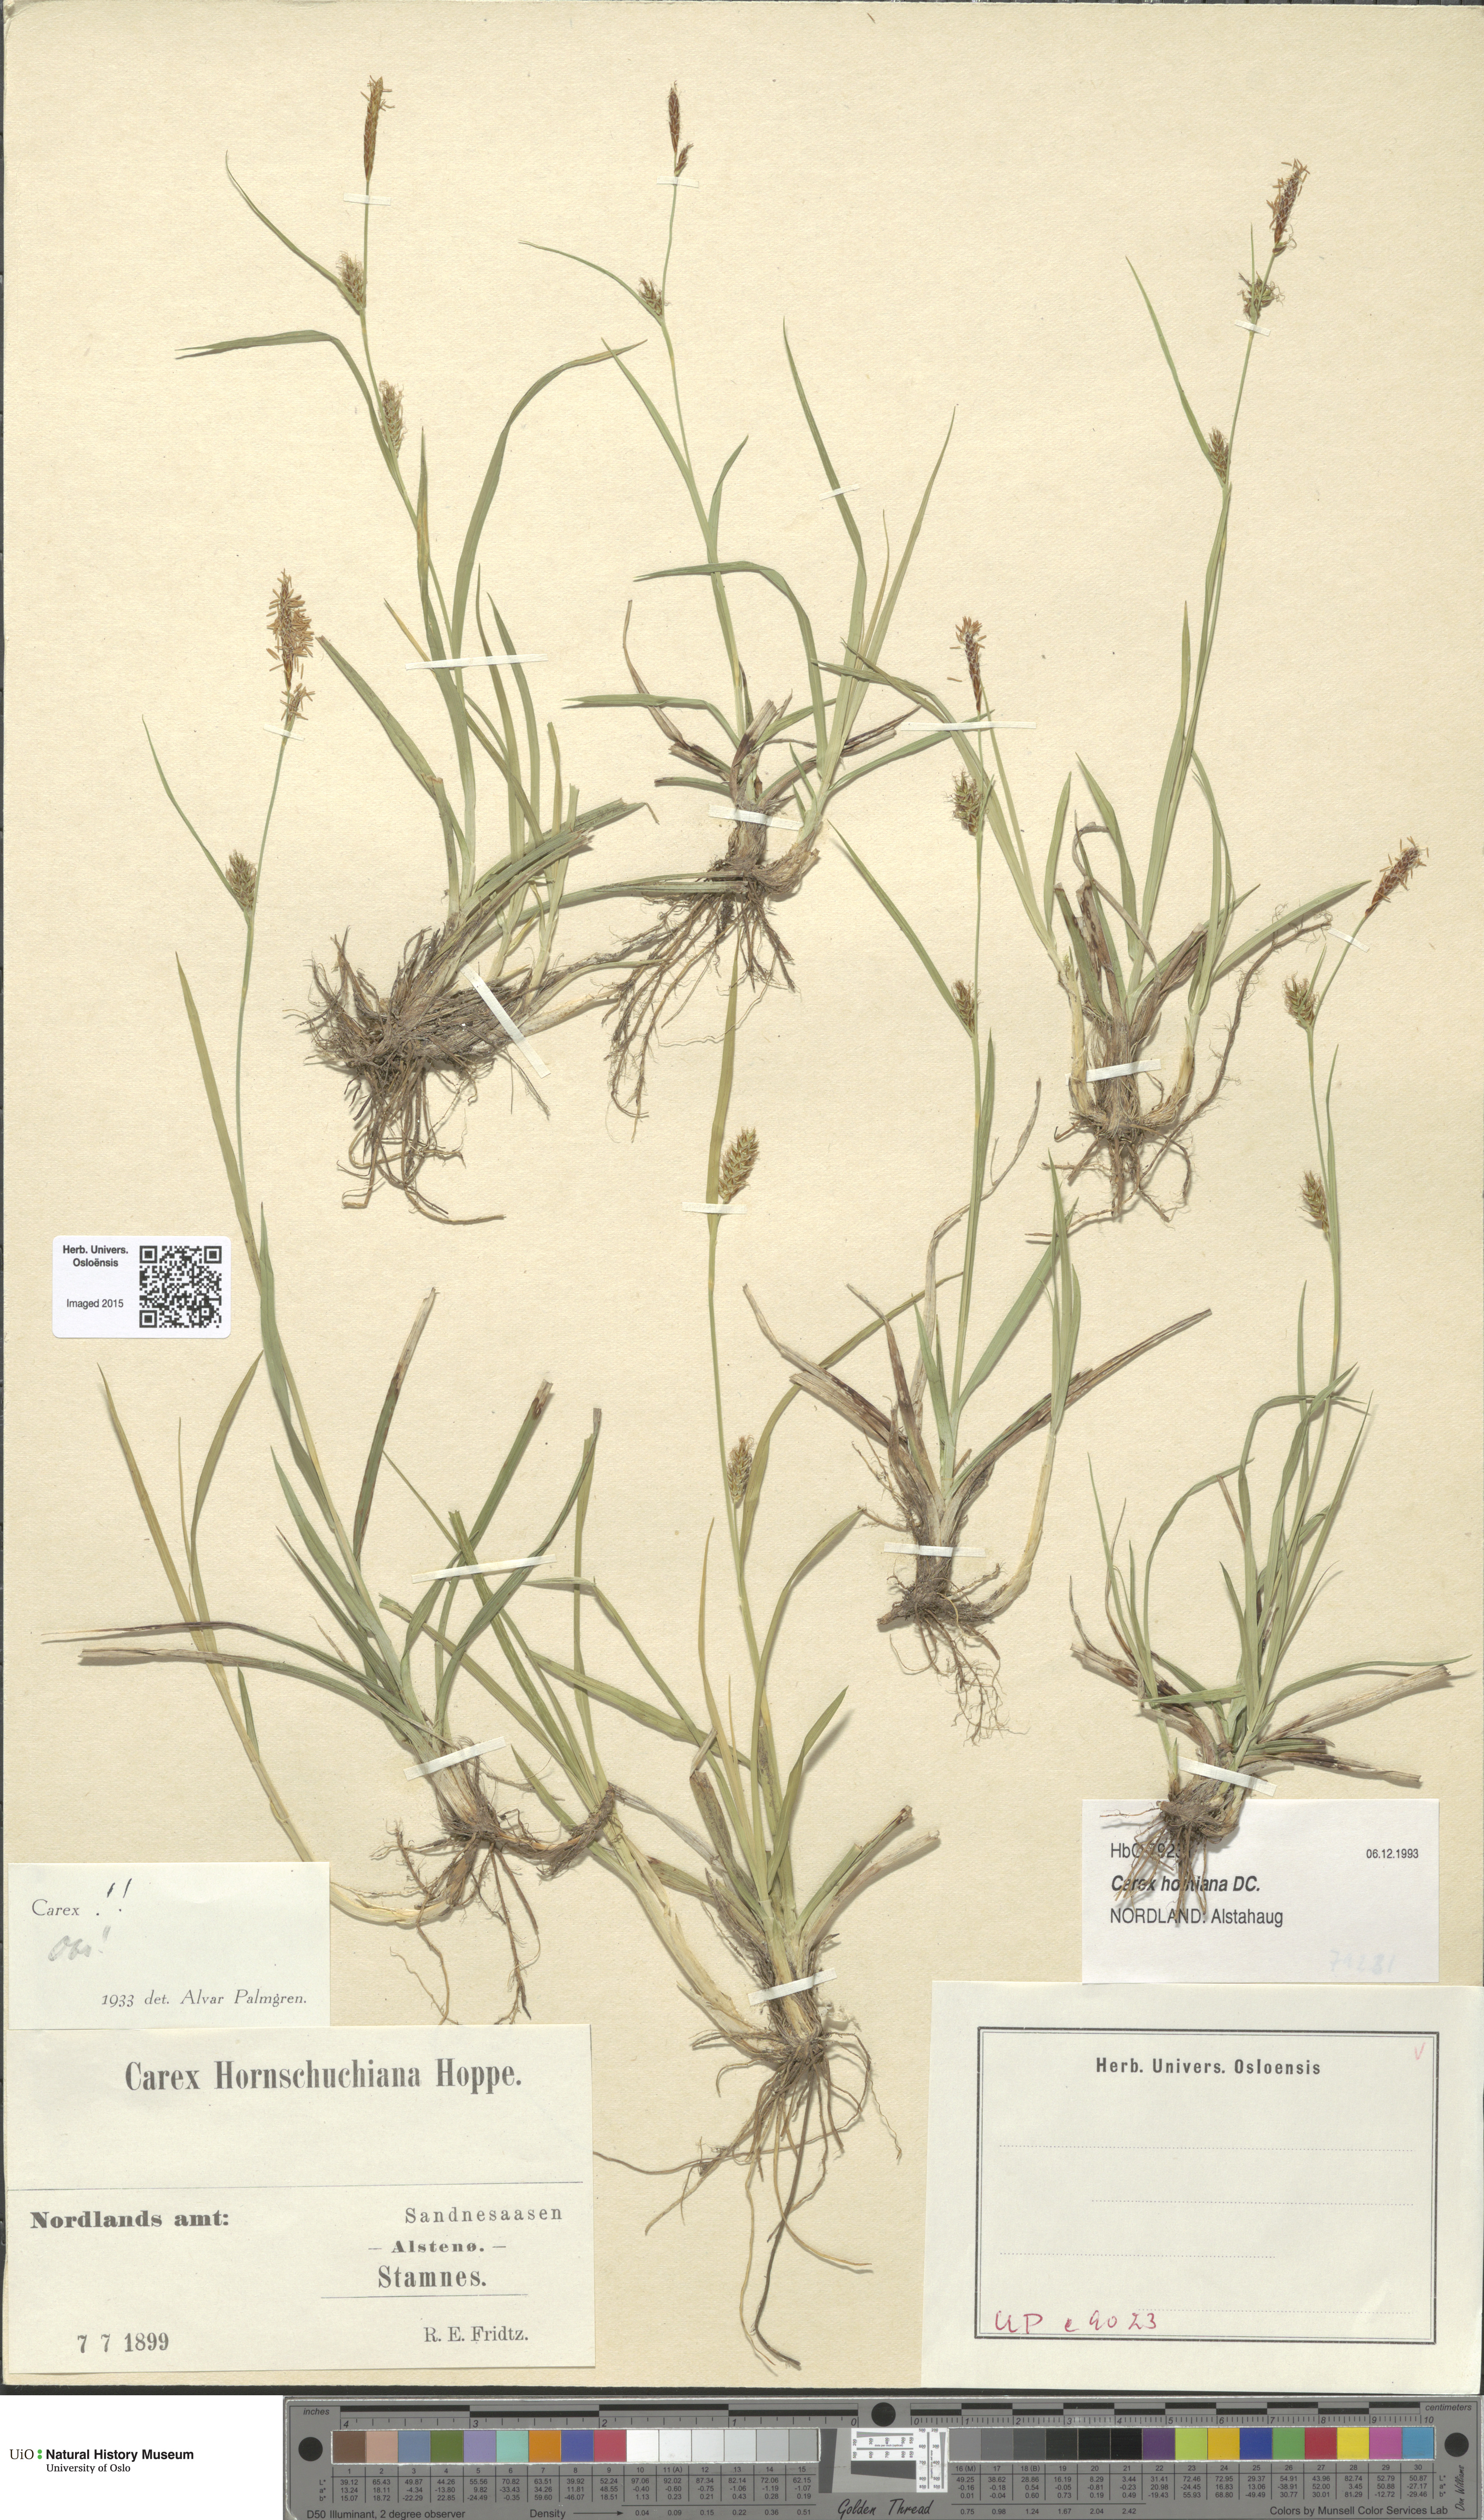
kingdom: Plantae
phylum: Tracheophyta
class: Liliopsida
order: Poales
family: Cyperaceae
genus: Carex
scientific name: Carex hostiana
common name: Tawny sedge
